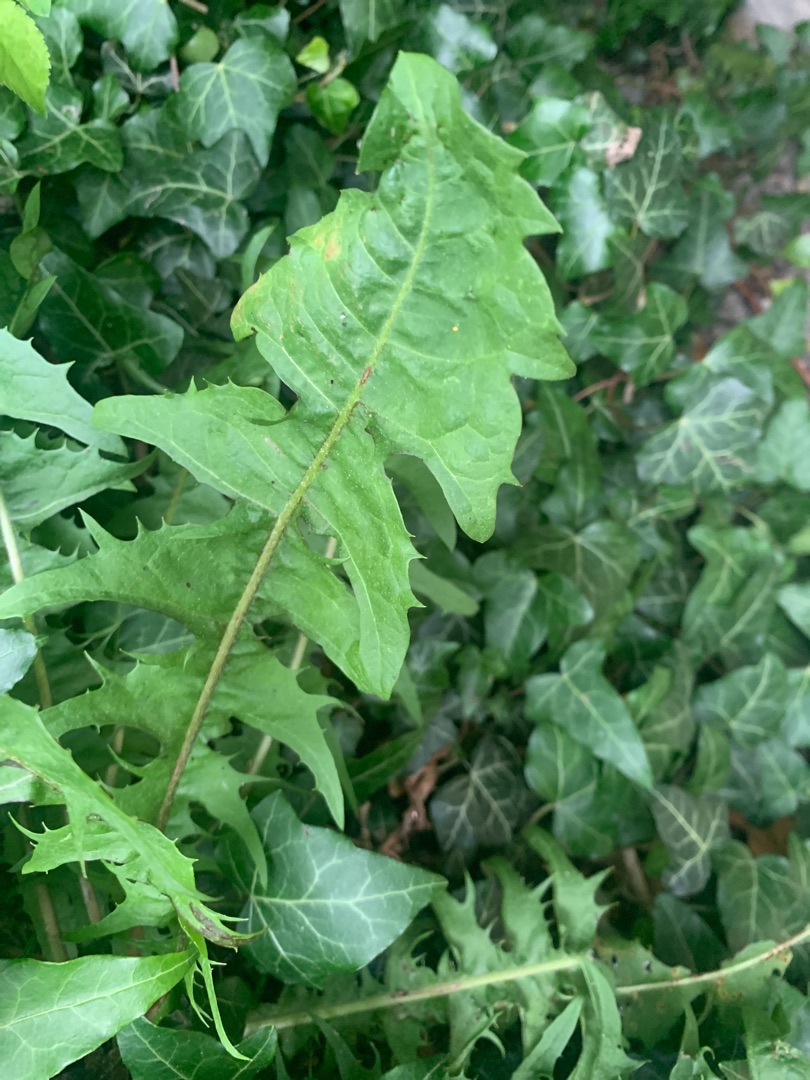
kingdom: Plantae
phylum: Tracheophyta
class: Magnoliopsida
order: Asterales
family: Asteraceae
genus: Taraxacum
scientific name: Taraxacum
